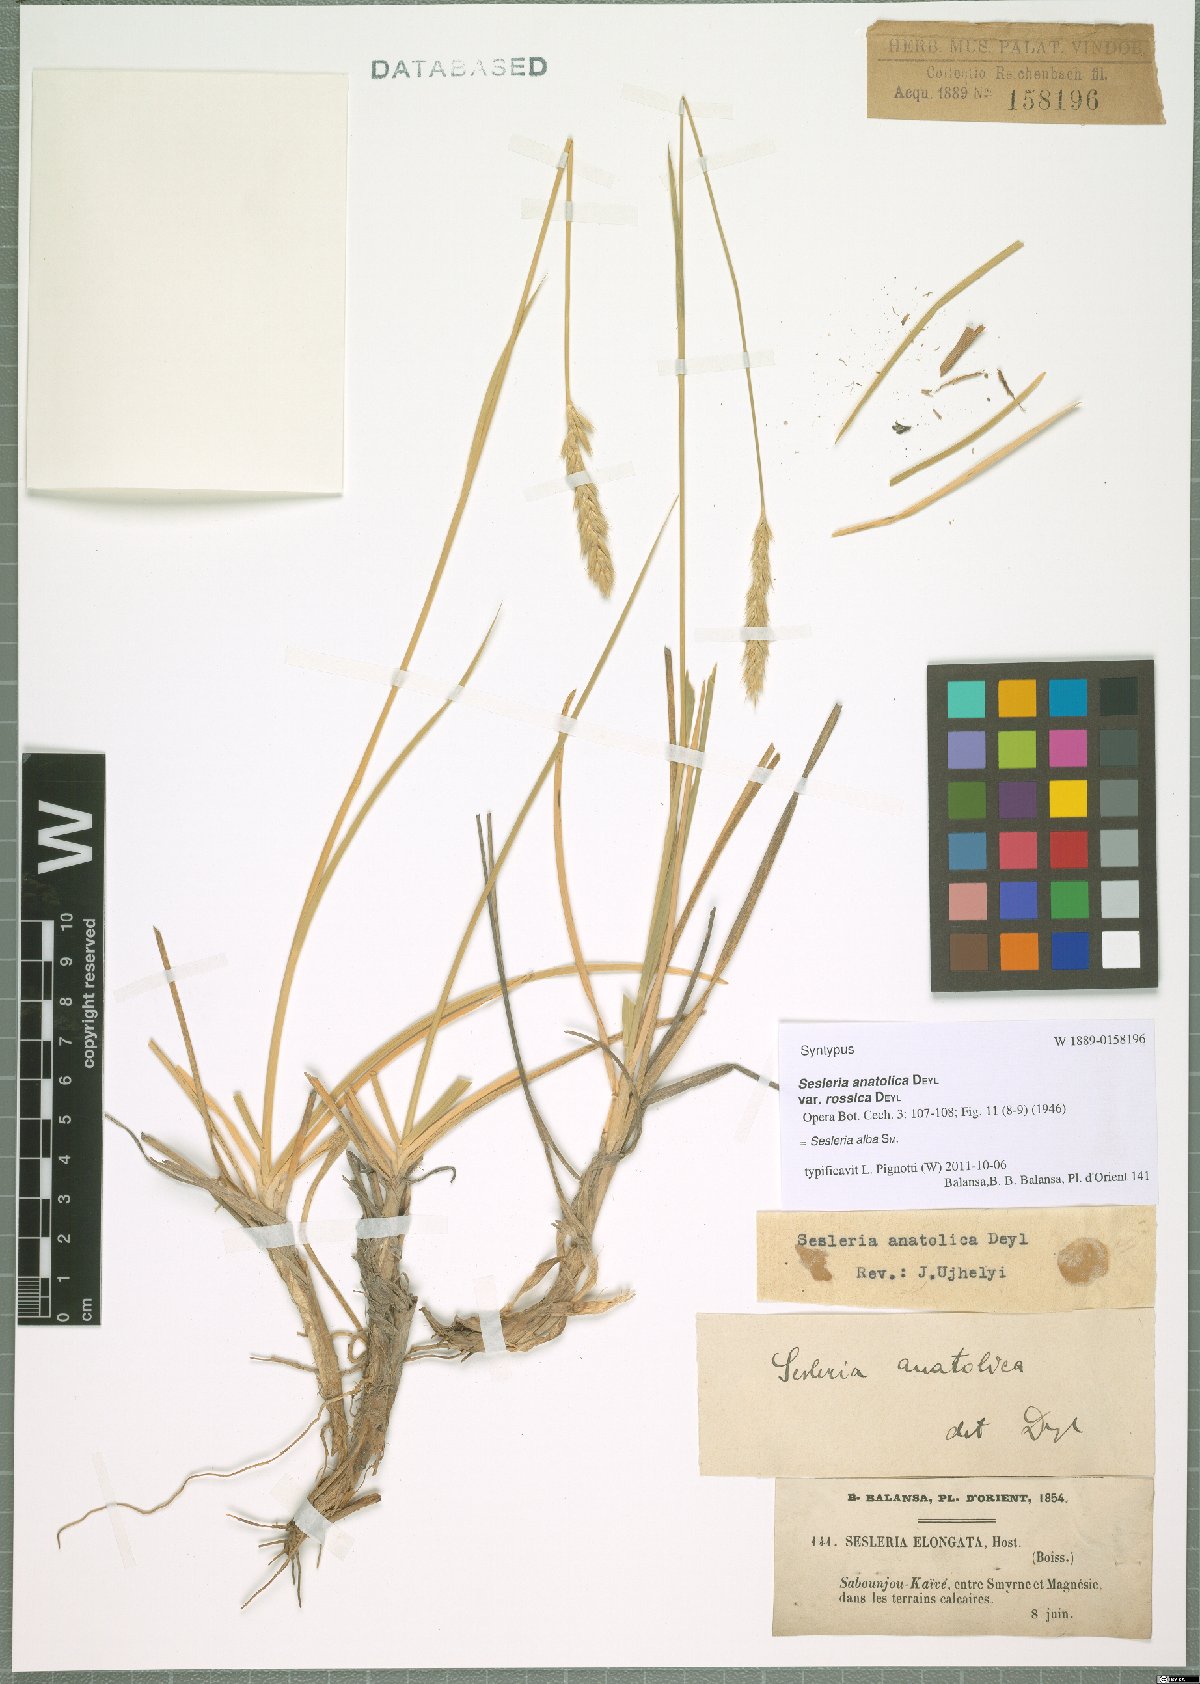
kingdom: Plantae
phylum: Tracheophyta
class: Liliopsida
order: Poales
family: Poaceae
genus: Sesleria
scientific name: Sesleria alba
